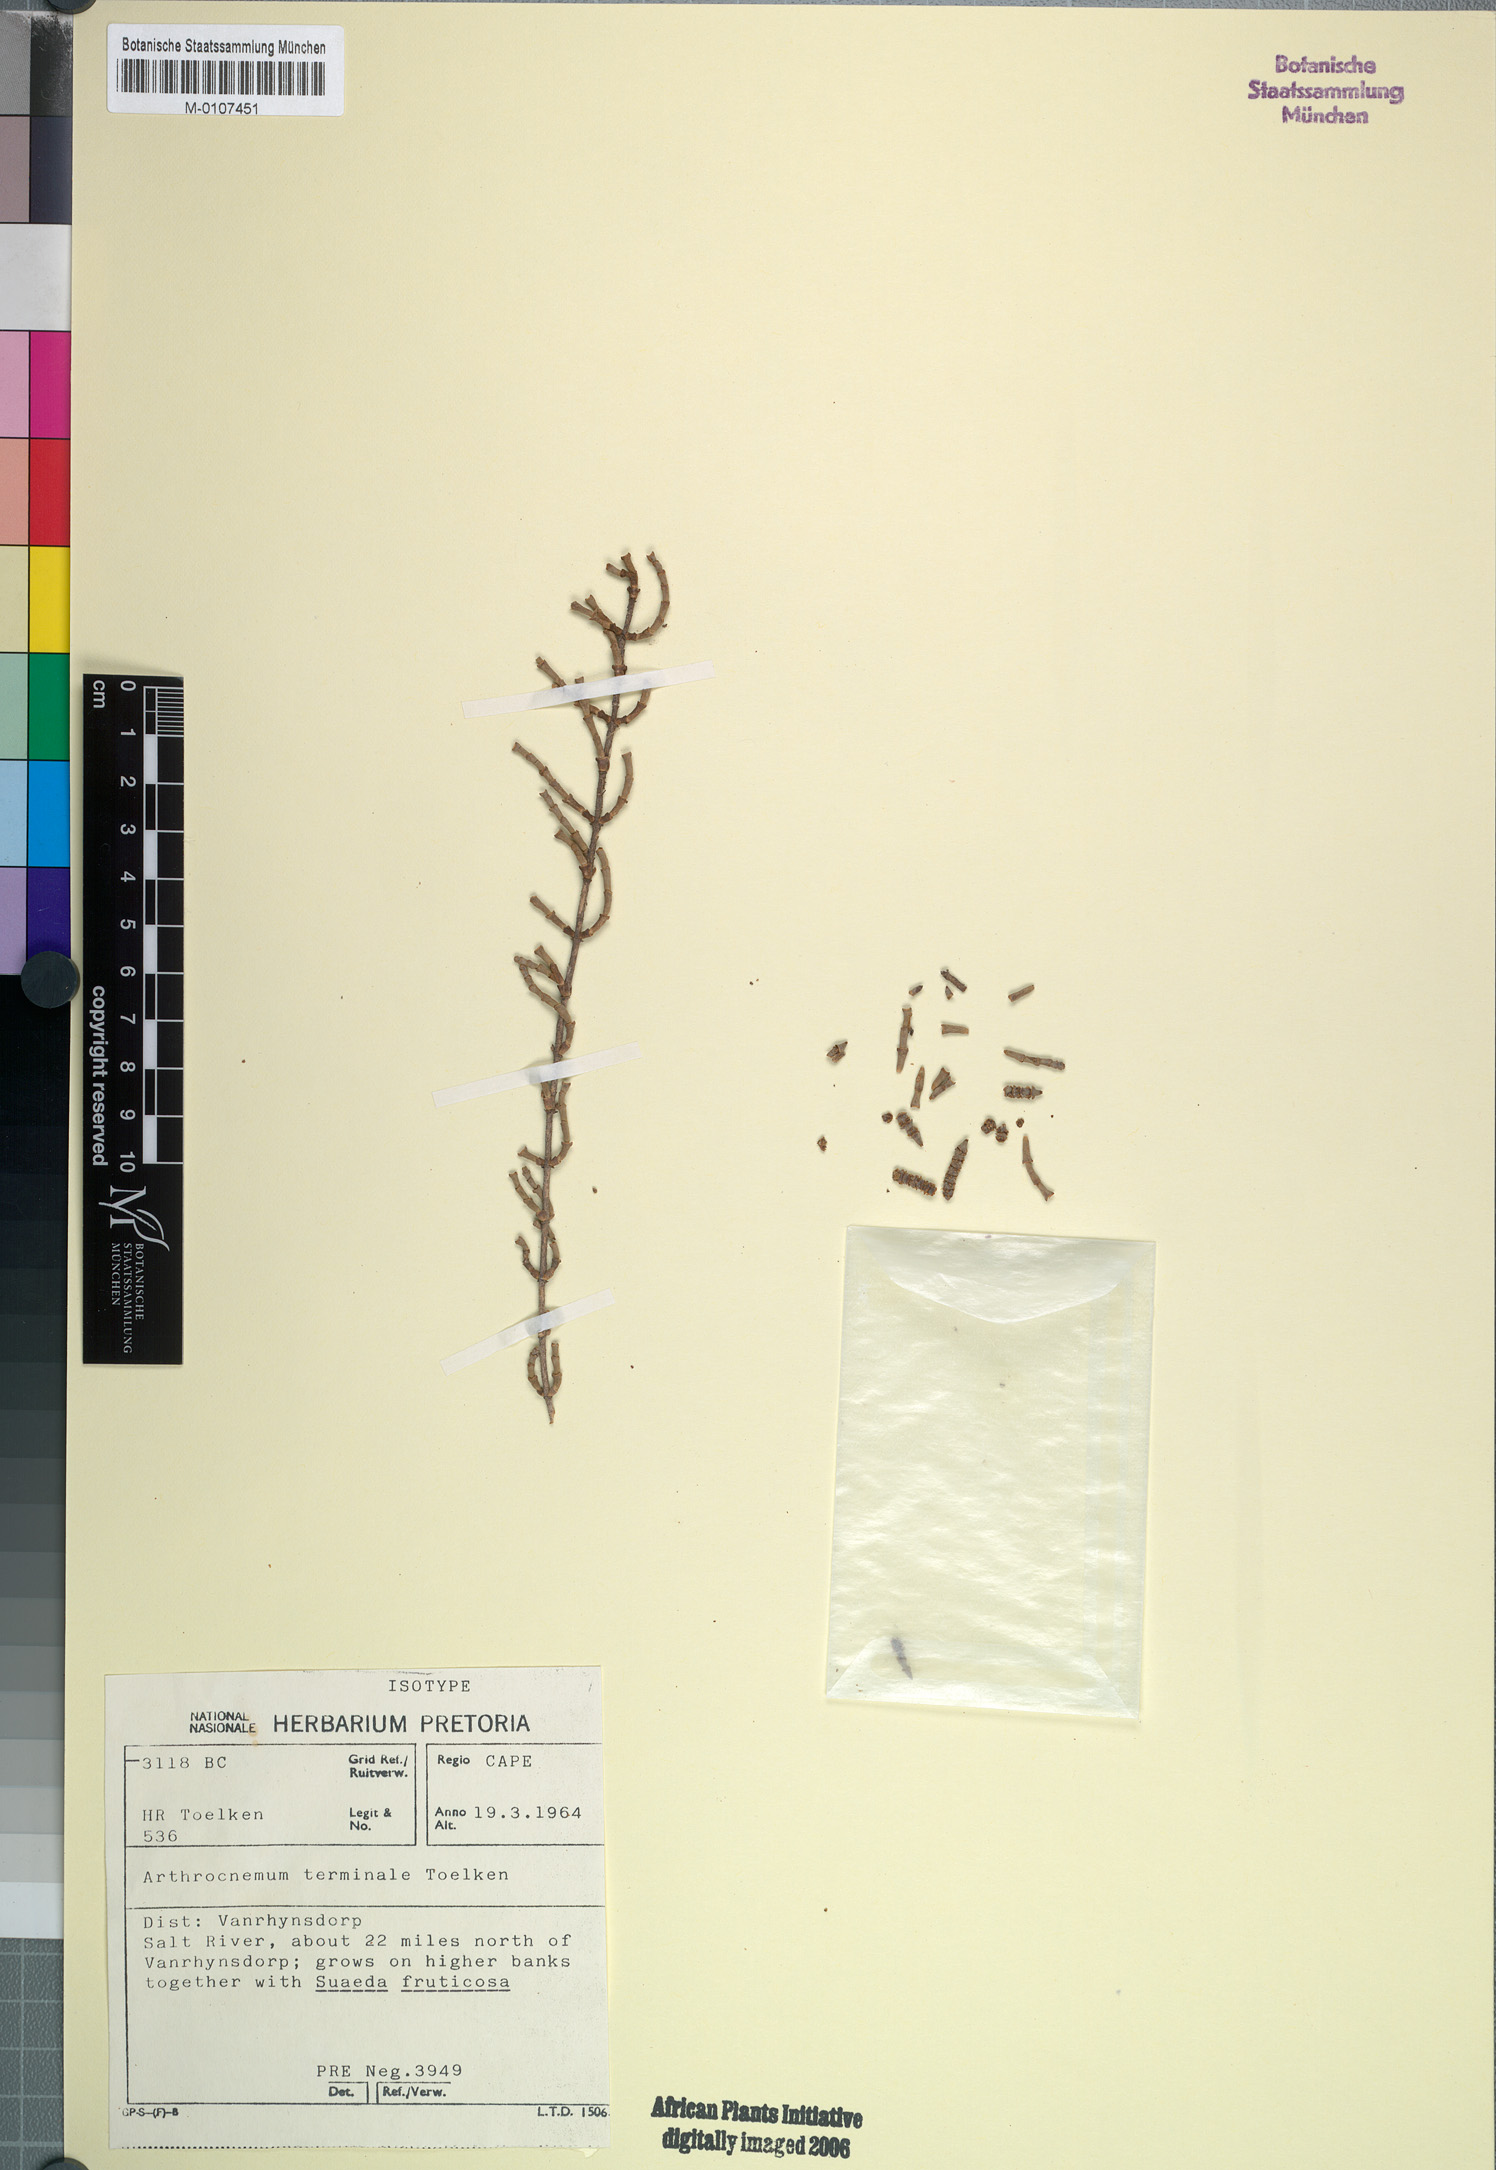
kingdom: Plantae
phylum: Tracheophyta
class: Magnoliopsida
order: Caryophyllales
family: Amaranthaceae
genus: Salicornia
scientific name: Salicornia terminalis
